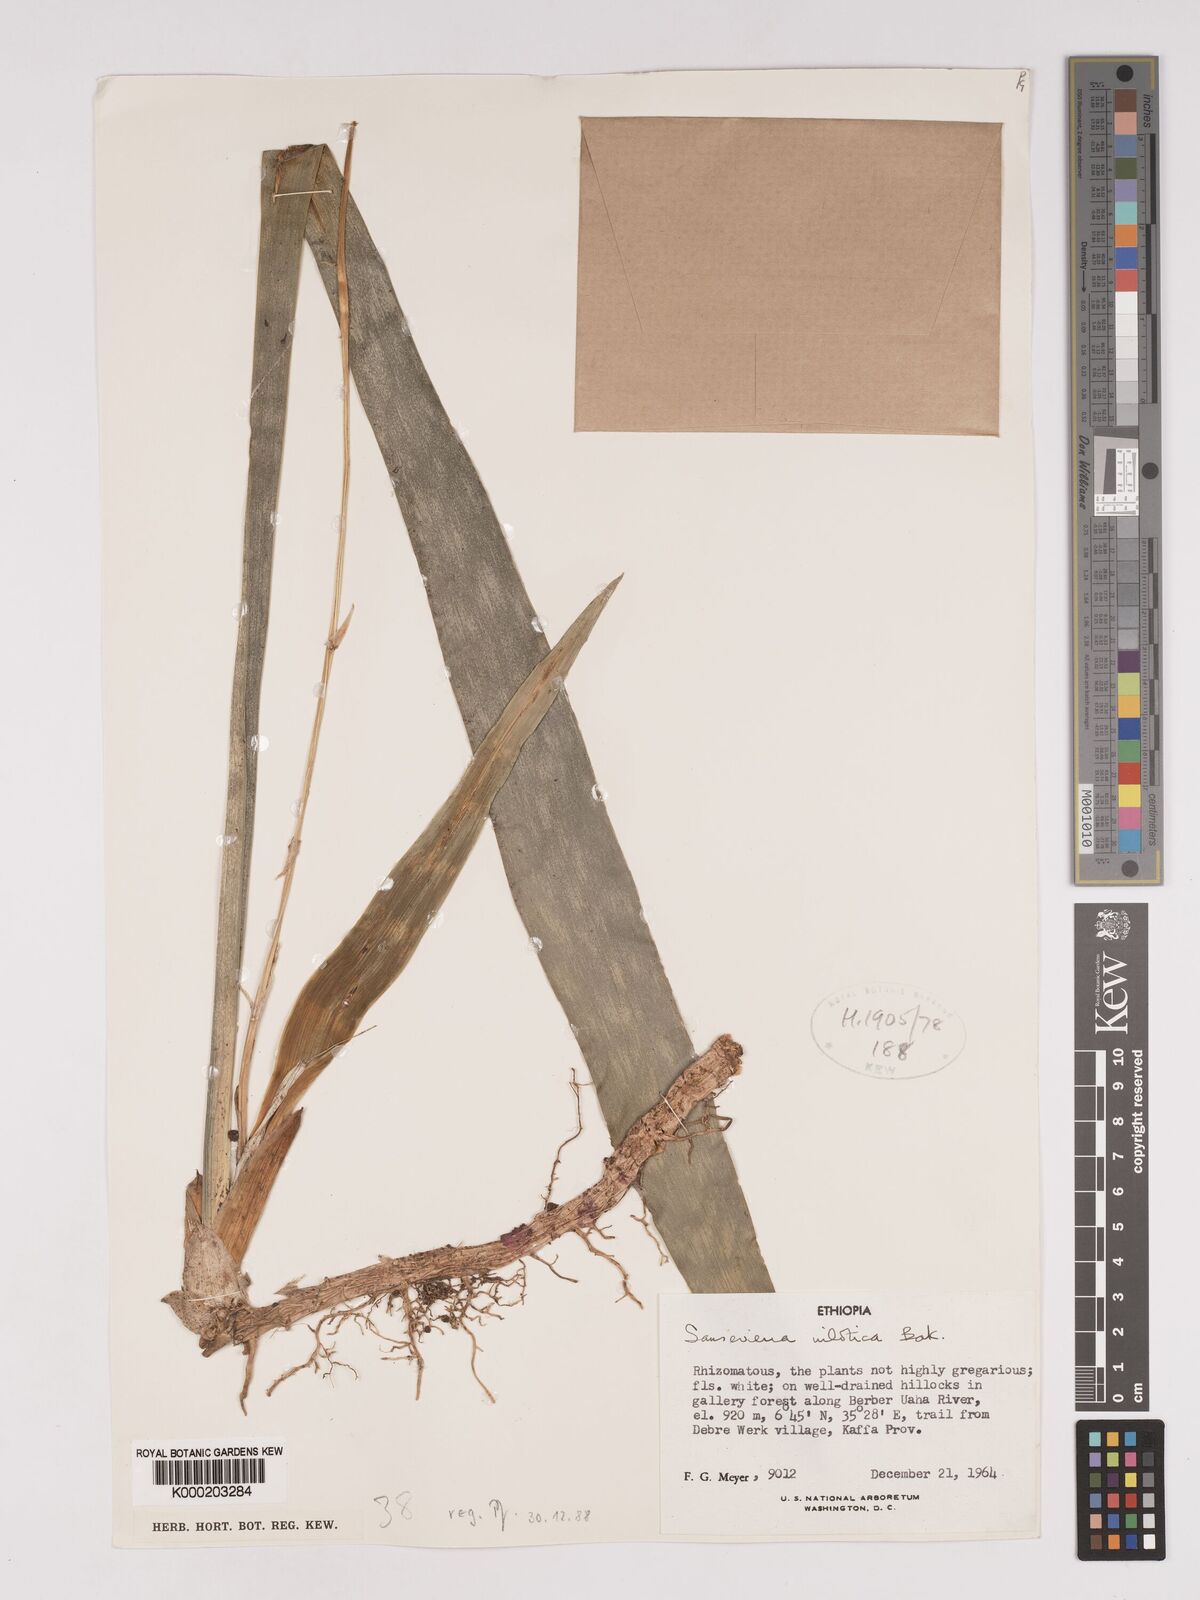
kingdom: Plantae
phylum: Tracheophyta
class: Liliopsida
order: Asparagales
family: Asparagaceae
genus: Dracaena
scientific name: Dracaena nilotica
